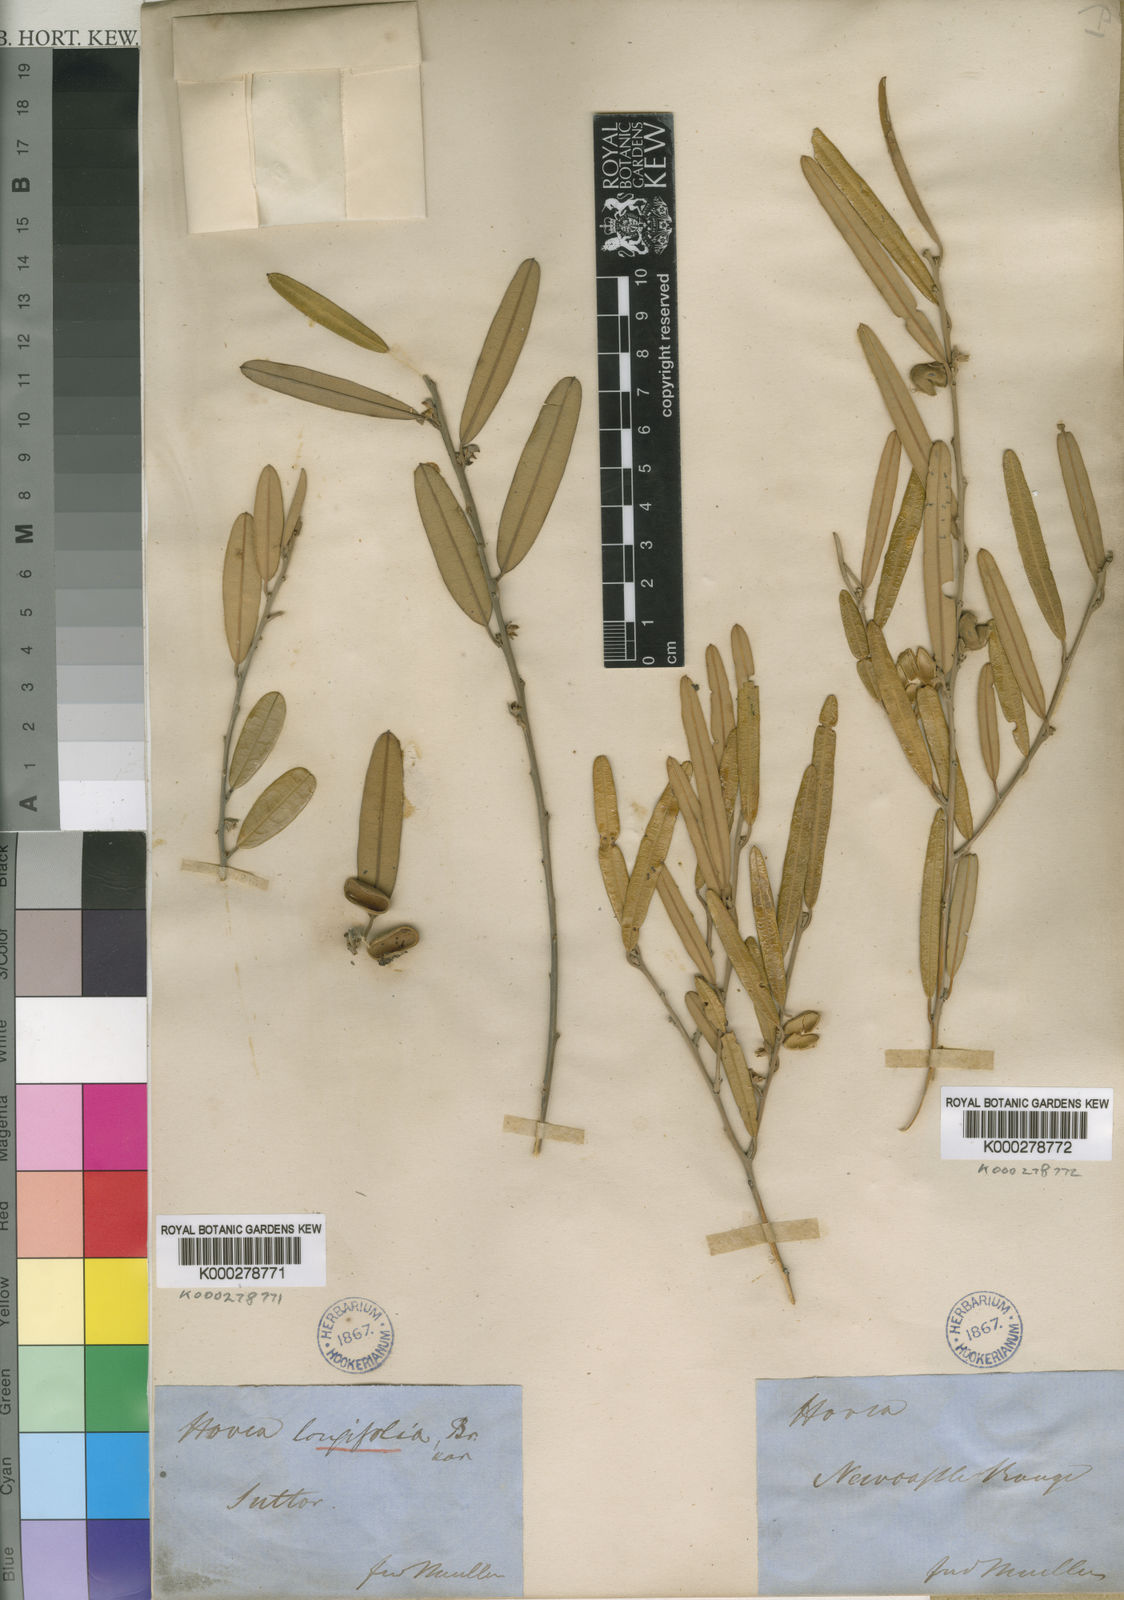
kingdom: Plantae
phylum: Tracheophyta
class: Magnoliopsida
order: Fabales
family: Fabaceae
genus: Hovea
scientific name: Hovea longifolia
